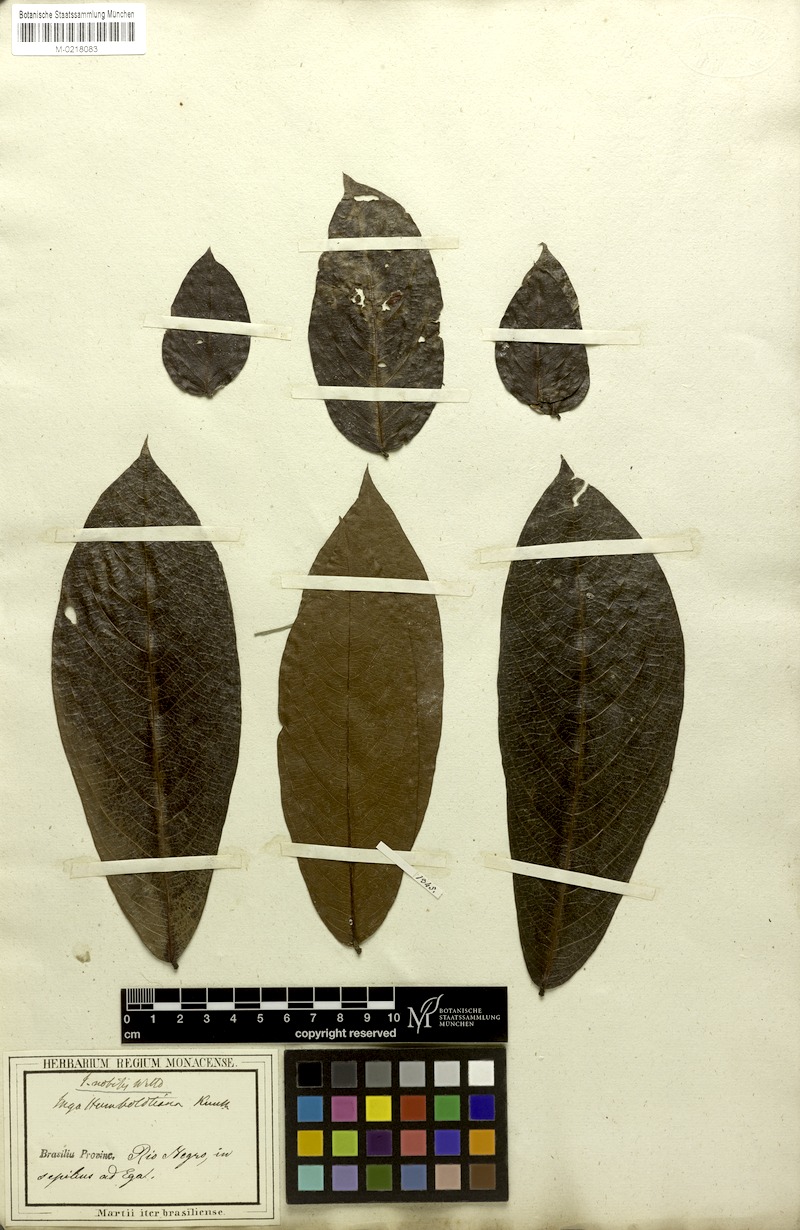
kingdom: Plantae
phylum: Tracheophyta
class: Magnoliopsida
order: Fabales
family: Fabaceae
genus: Inga
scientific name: Inga nobilis
